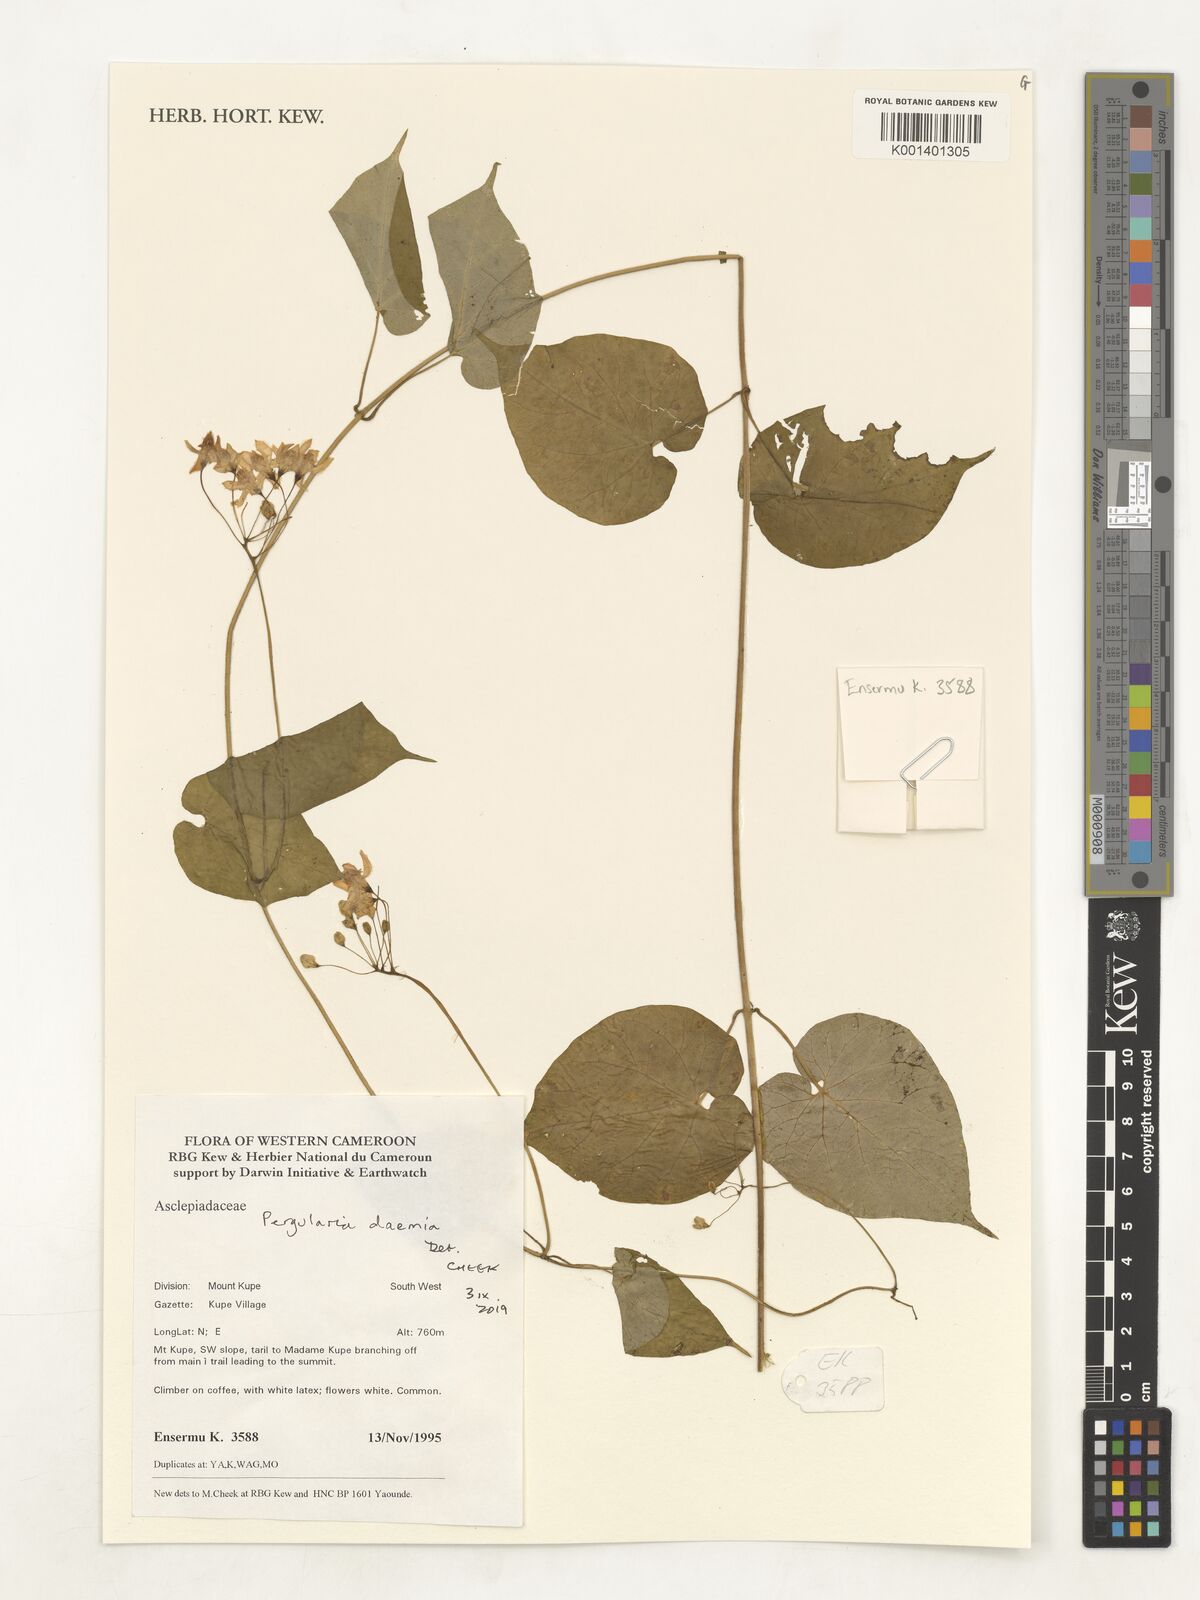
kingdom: Plantae
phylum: Tracheophyta
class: Magnoliopsida
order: Gentianales
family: Apocynaceae
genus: Pergularia
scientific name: Pergularia daemia
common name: Trellis-vine
